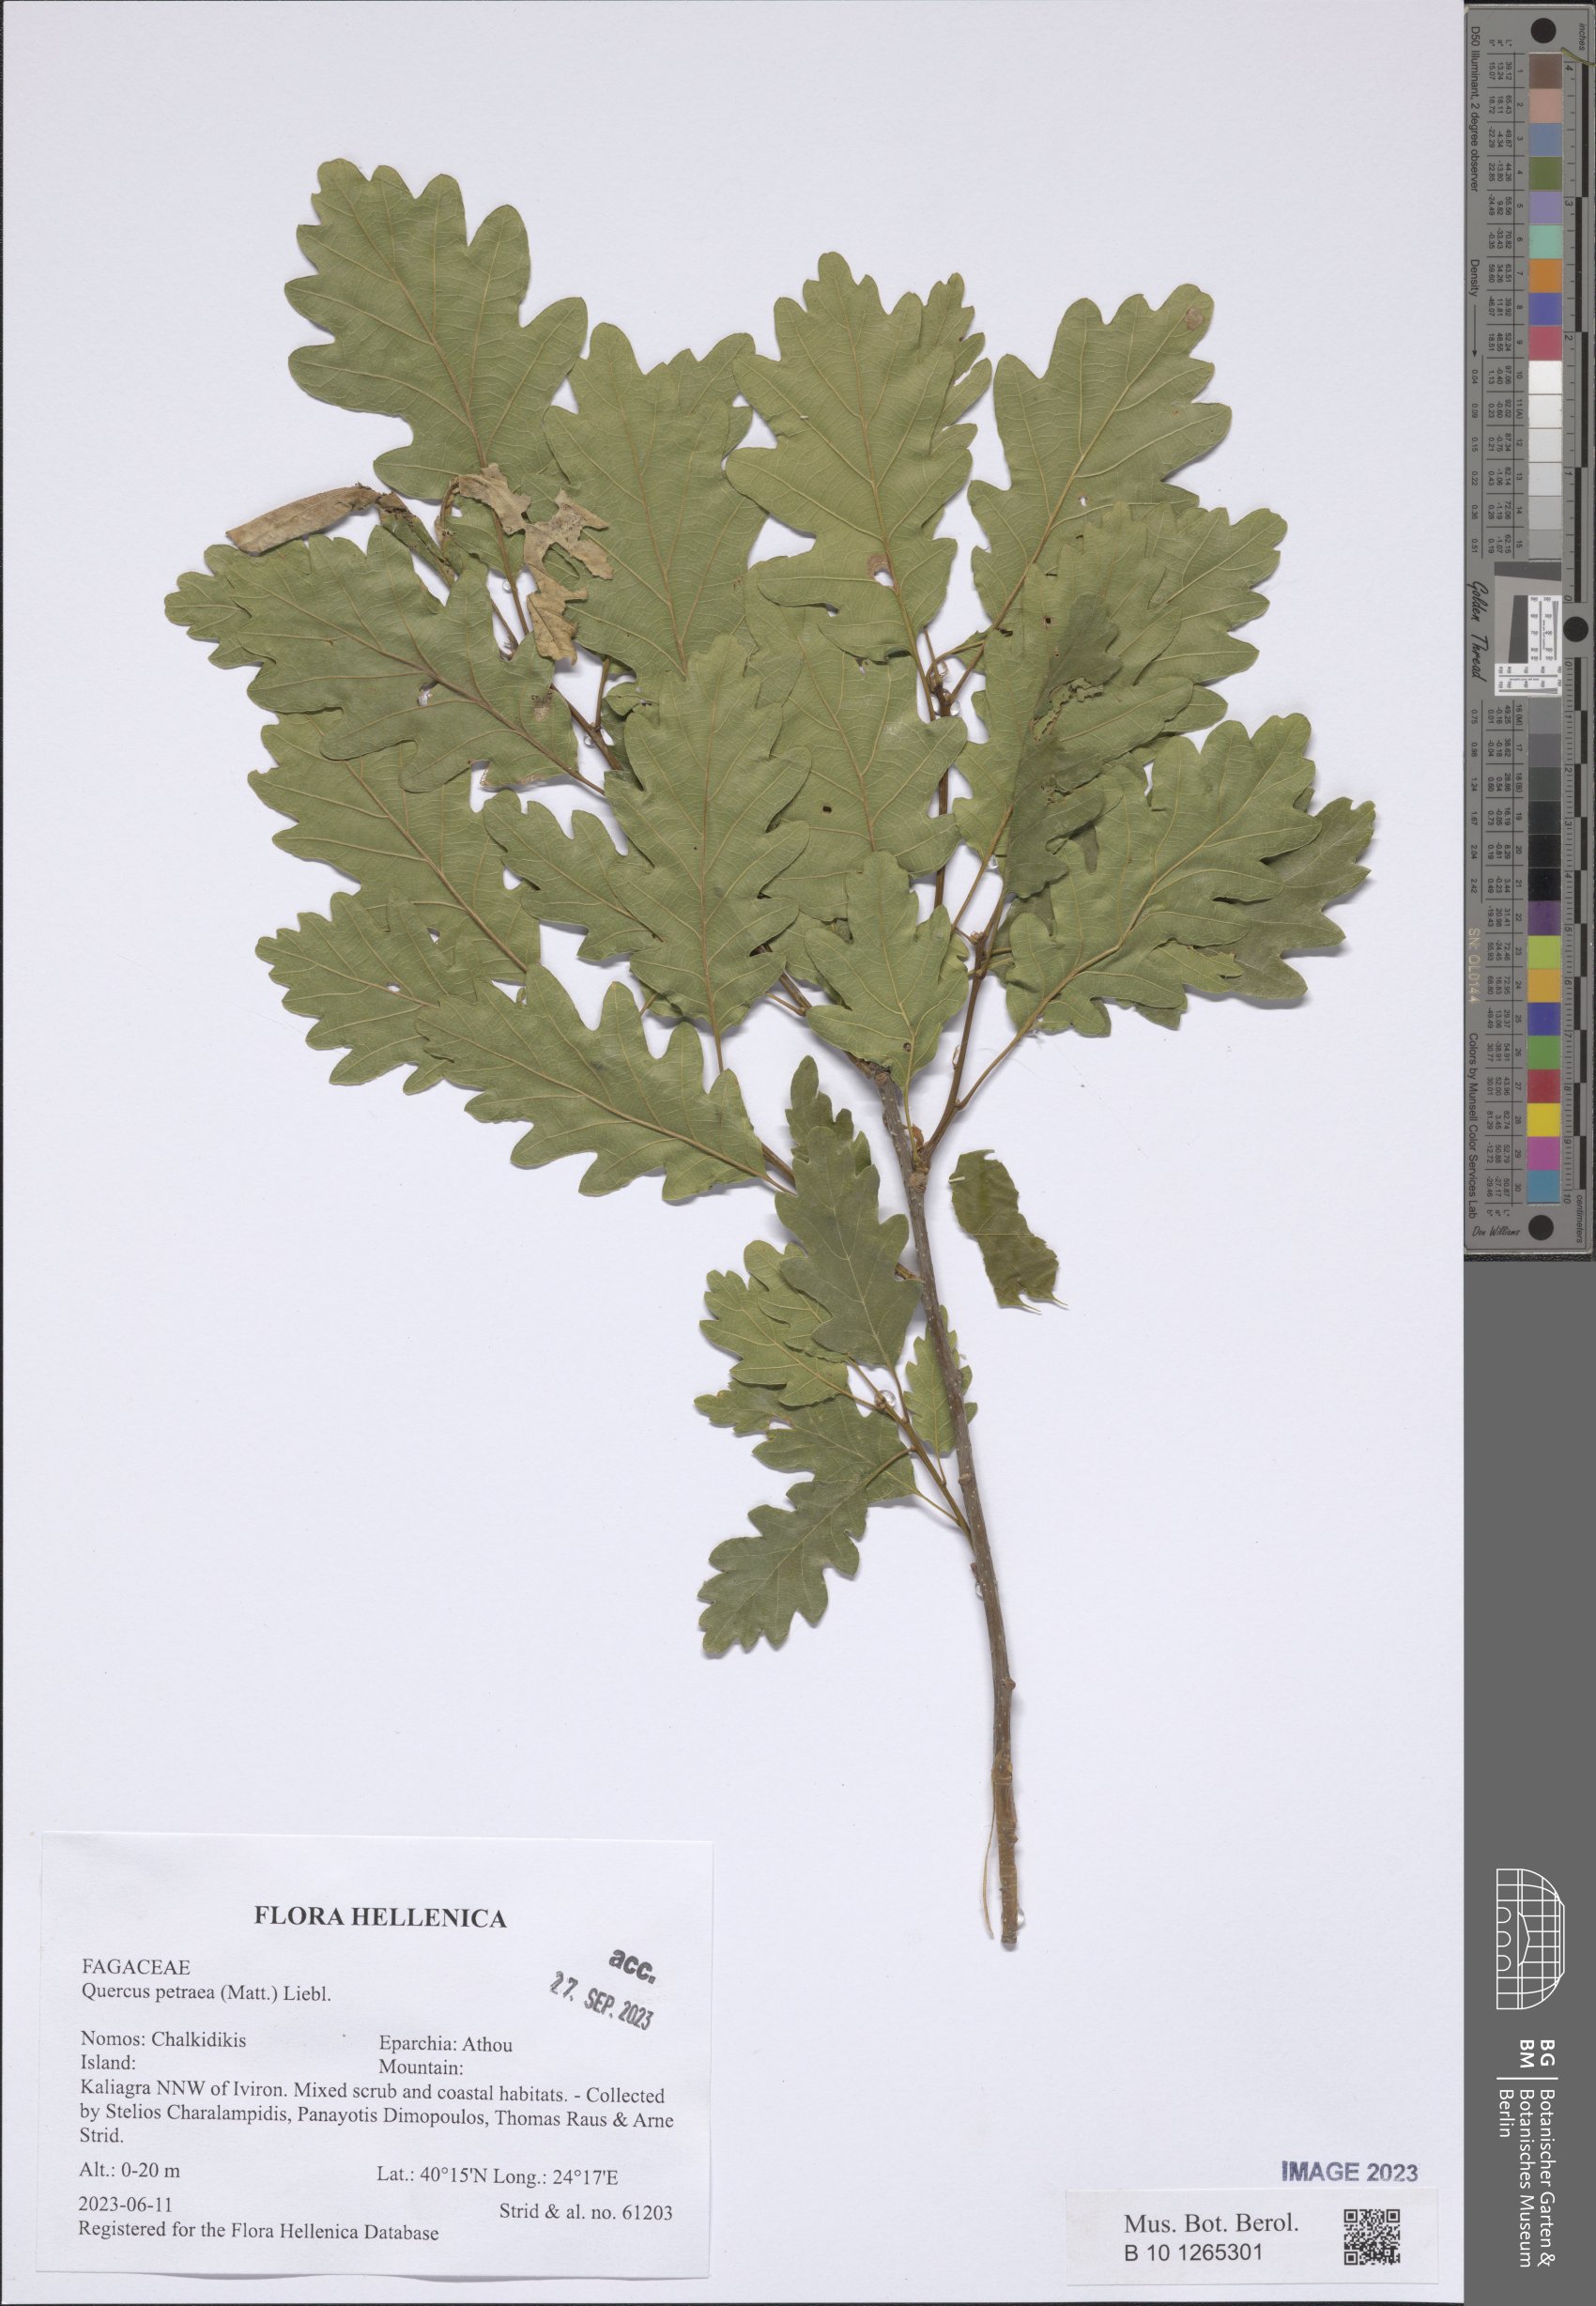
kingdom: Plantae
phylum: Tracheophyta
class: Magnoliopsida
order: Fagales
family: Fagaceae
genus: Quercus
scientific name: Quercus petraea
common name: Sessile oak
